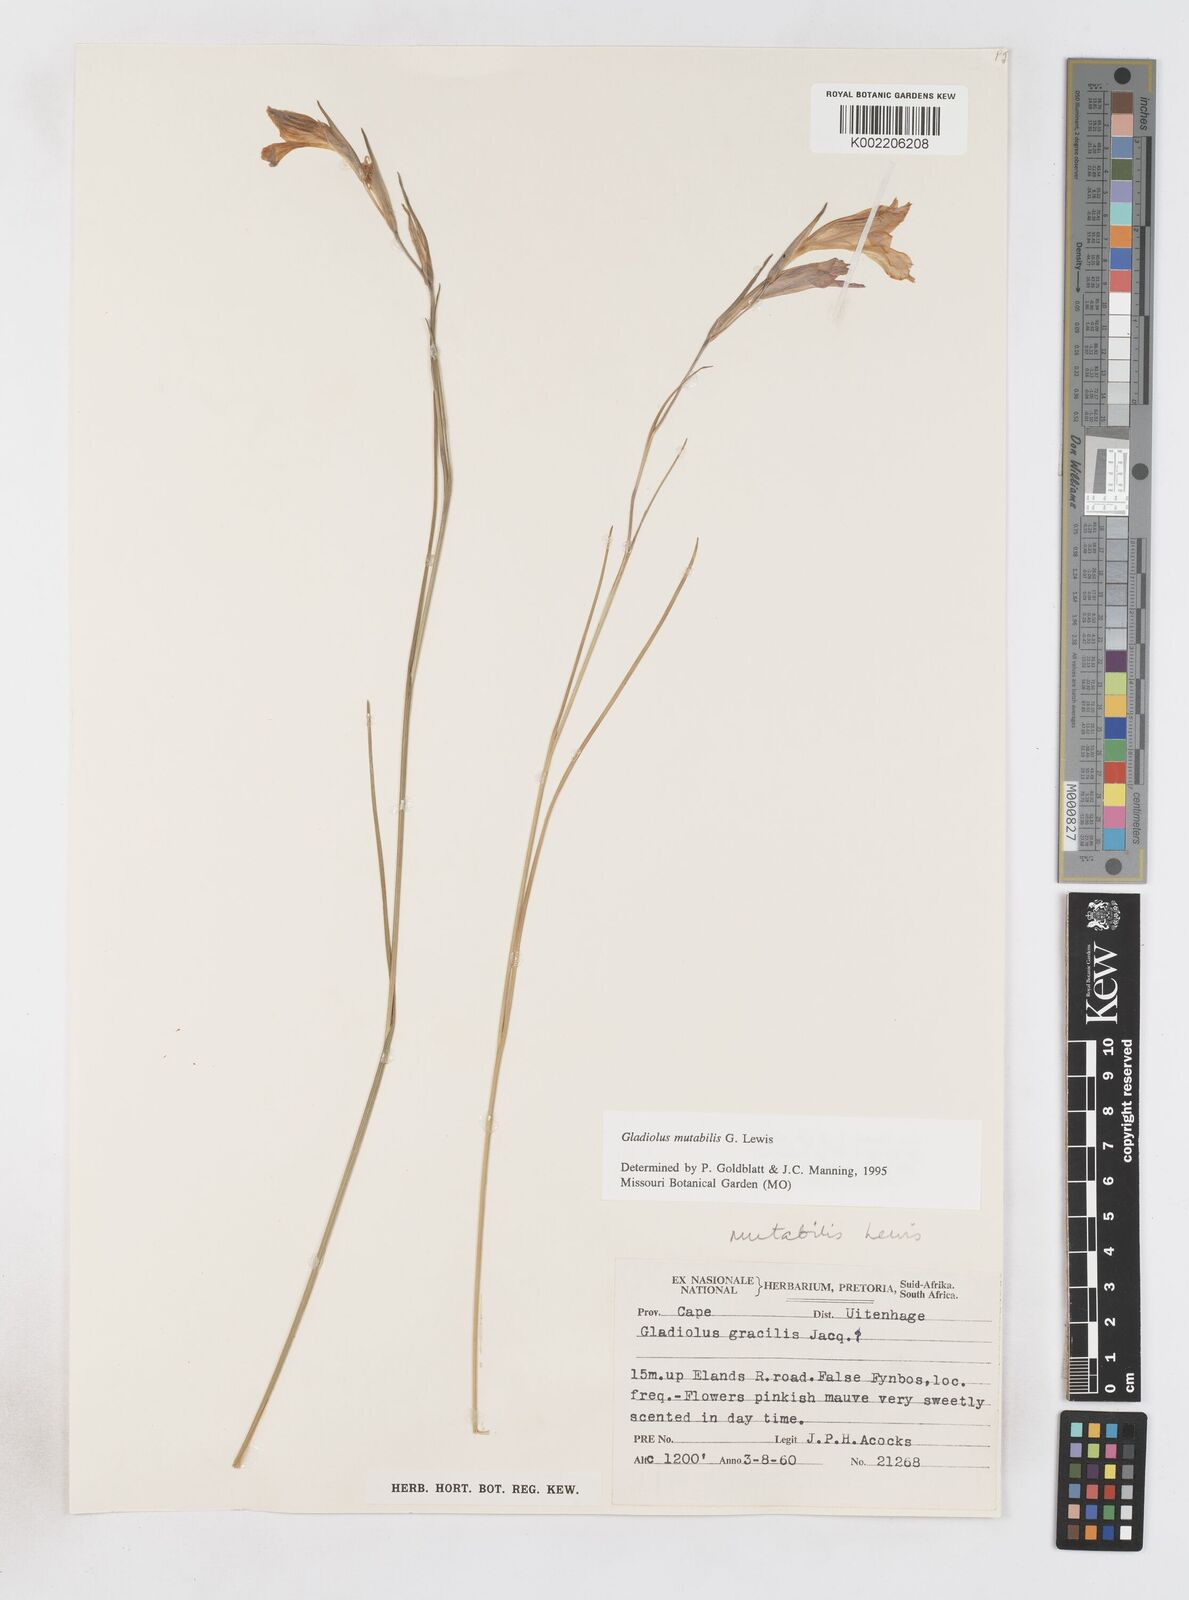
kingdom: Plantae
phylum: Tracheophyta
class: Liliopsida
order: Asparagales
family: Iridaceae
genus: Gladiolus
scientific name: Gladiolus mutabilis
